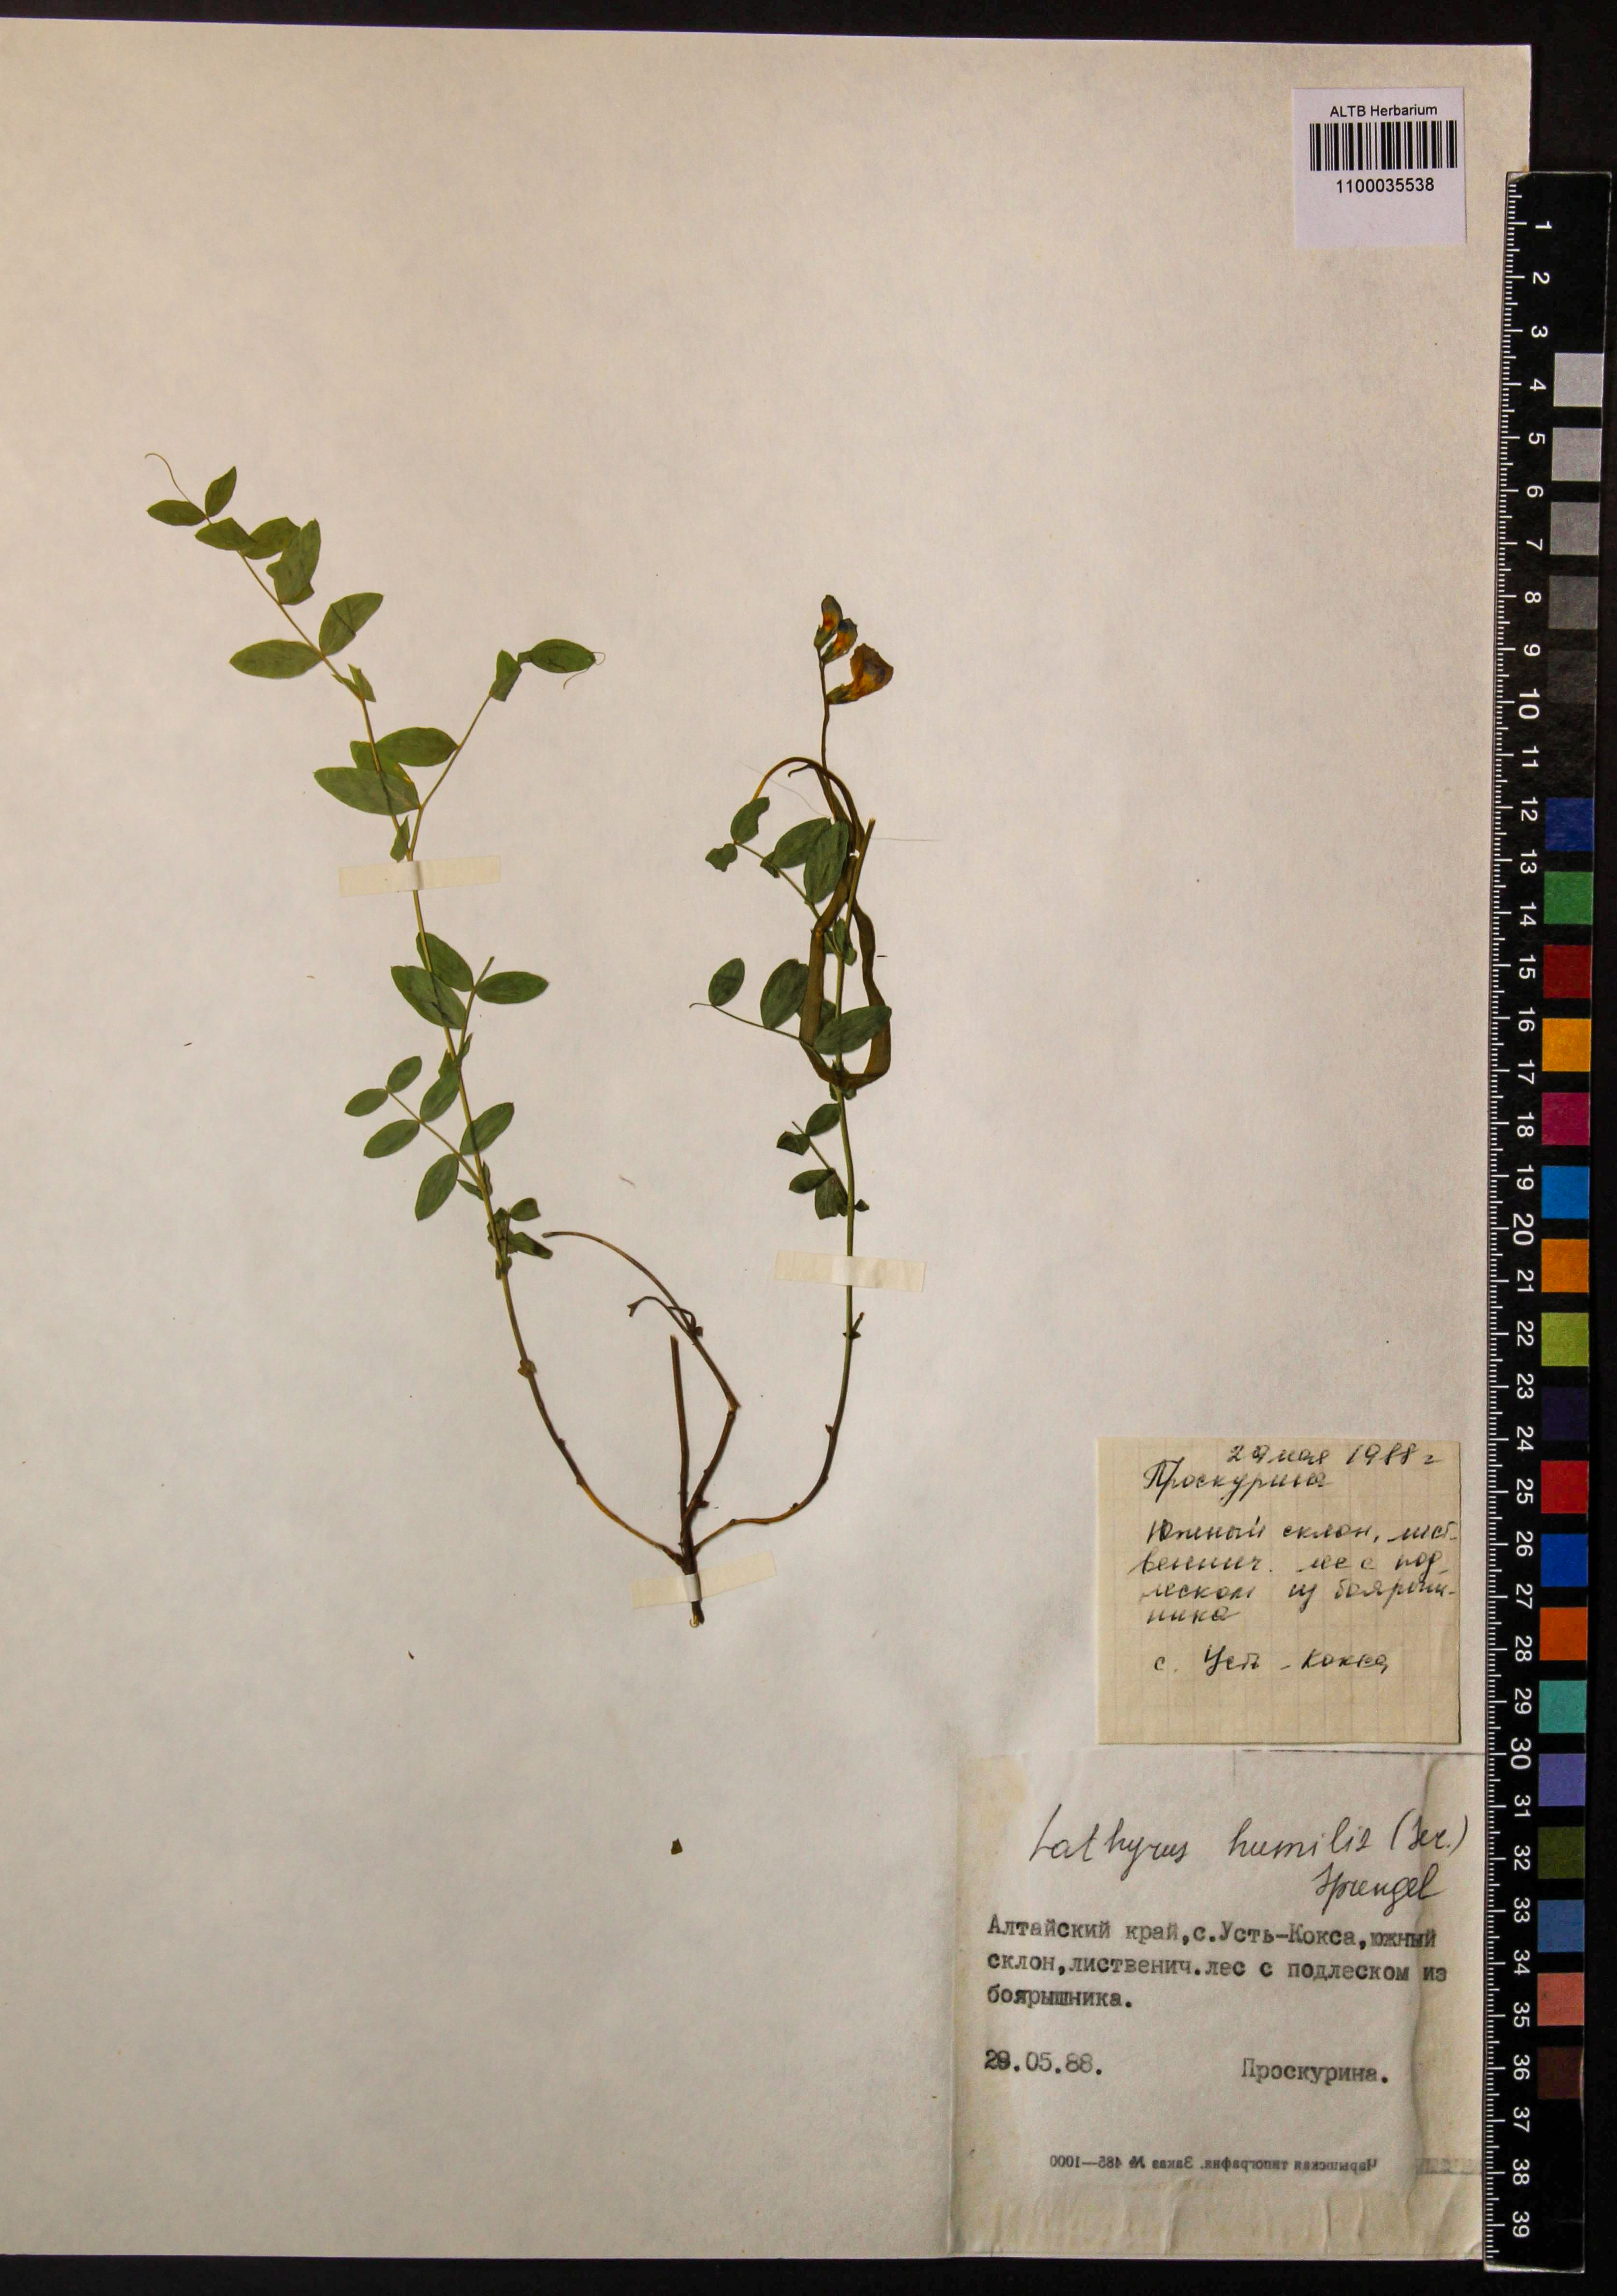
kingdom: Plantae
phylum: Tracheophyta
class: Magnoliopsida
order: Fabales
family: Fabaceae
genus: Lathyrus
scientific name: Lathyrus humilis
